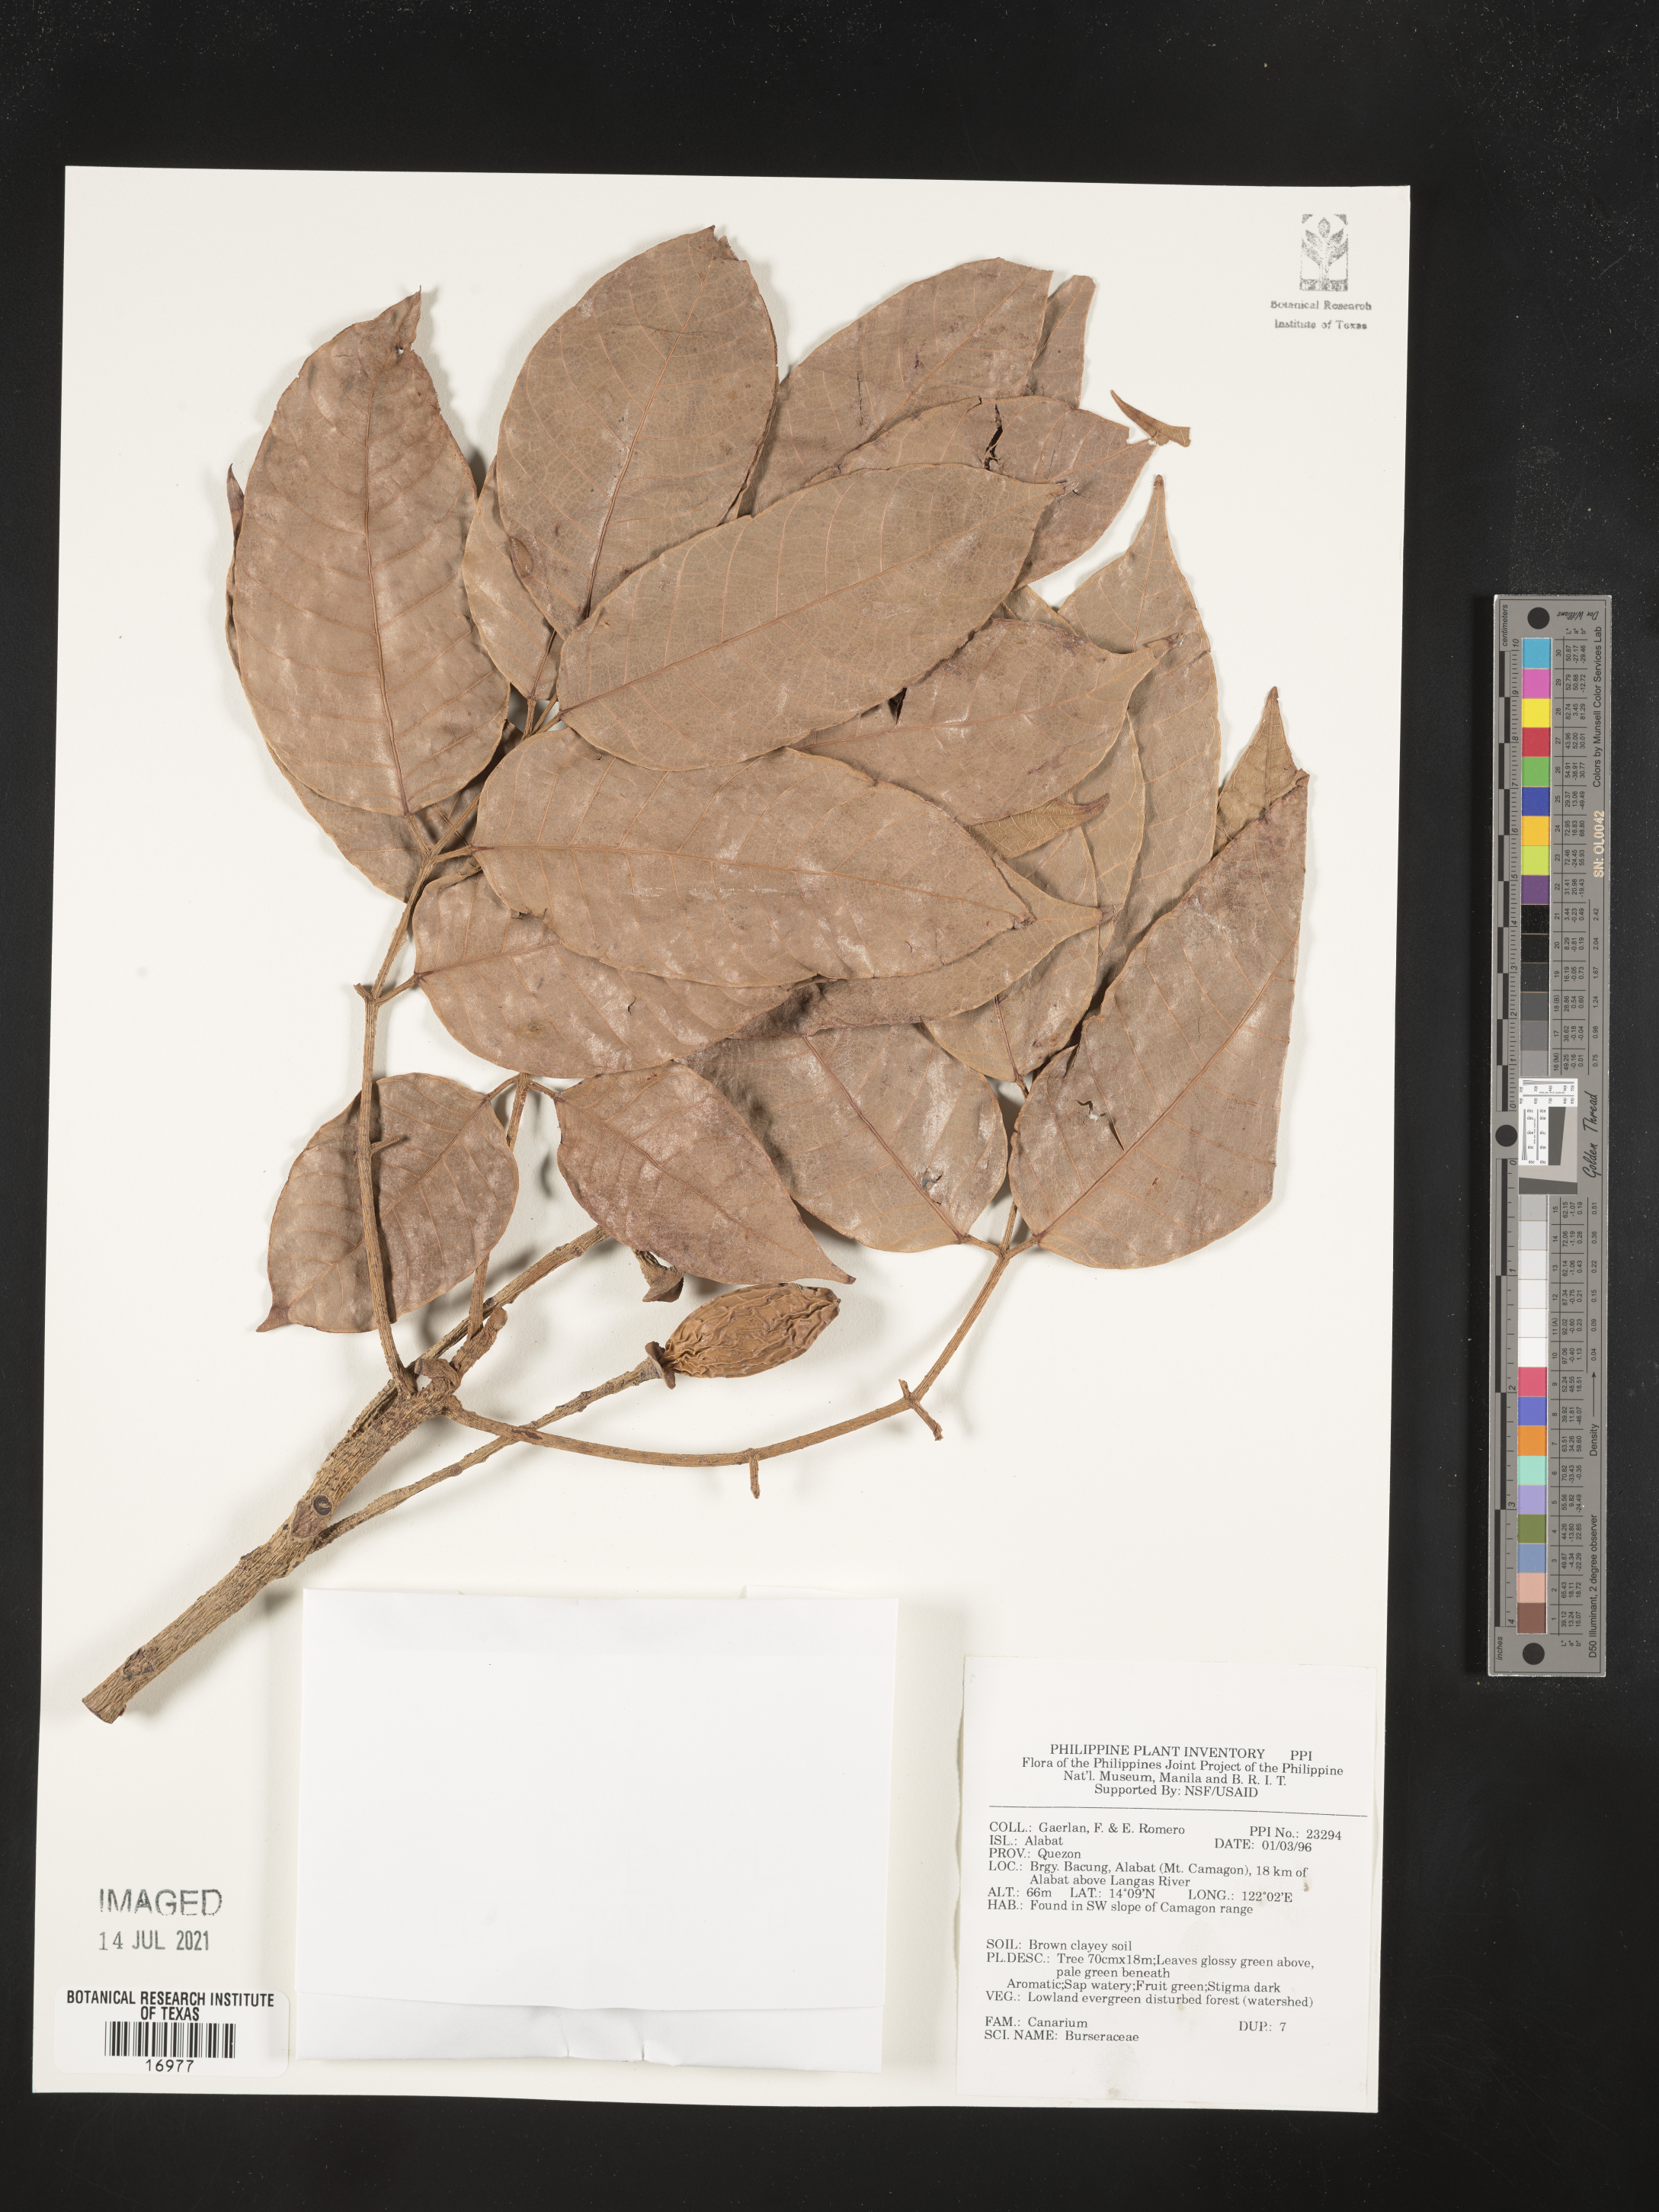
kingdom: Plantae
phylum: Tracheophyta
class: Magnoliopsida
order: Sapindales
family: Burseraceae
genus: Canarium
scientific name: Canarium
